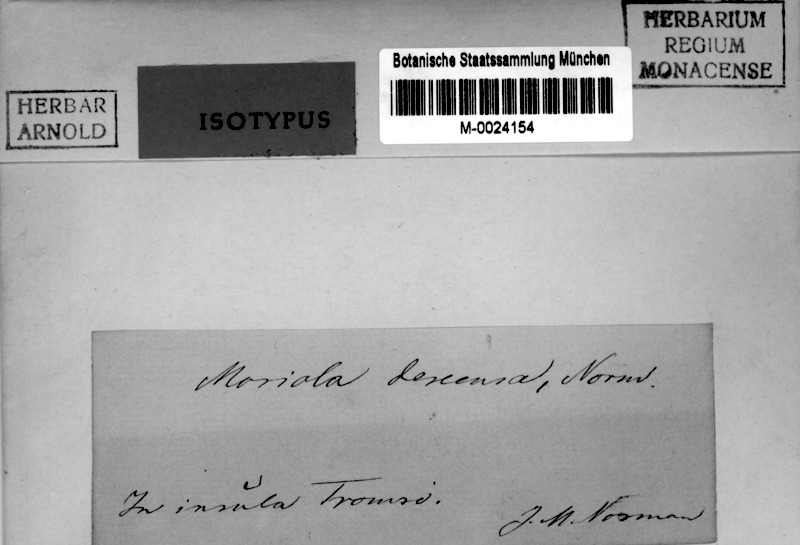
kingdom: Fungi
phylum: Ascomycota
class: Eurotiomycetes
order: Verrucariales
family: Verrucariaceae
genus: Moriola
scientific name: Moriola descensa
